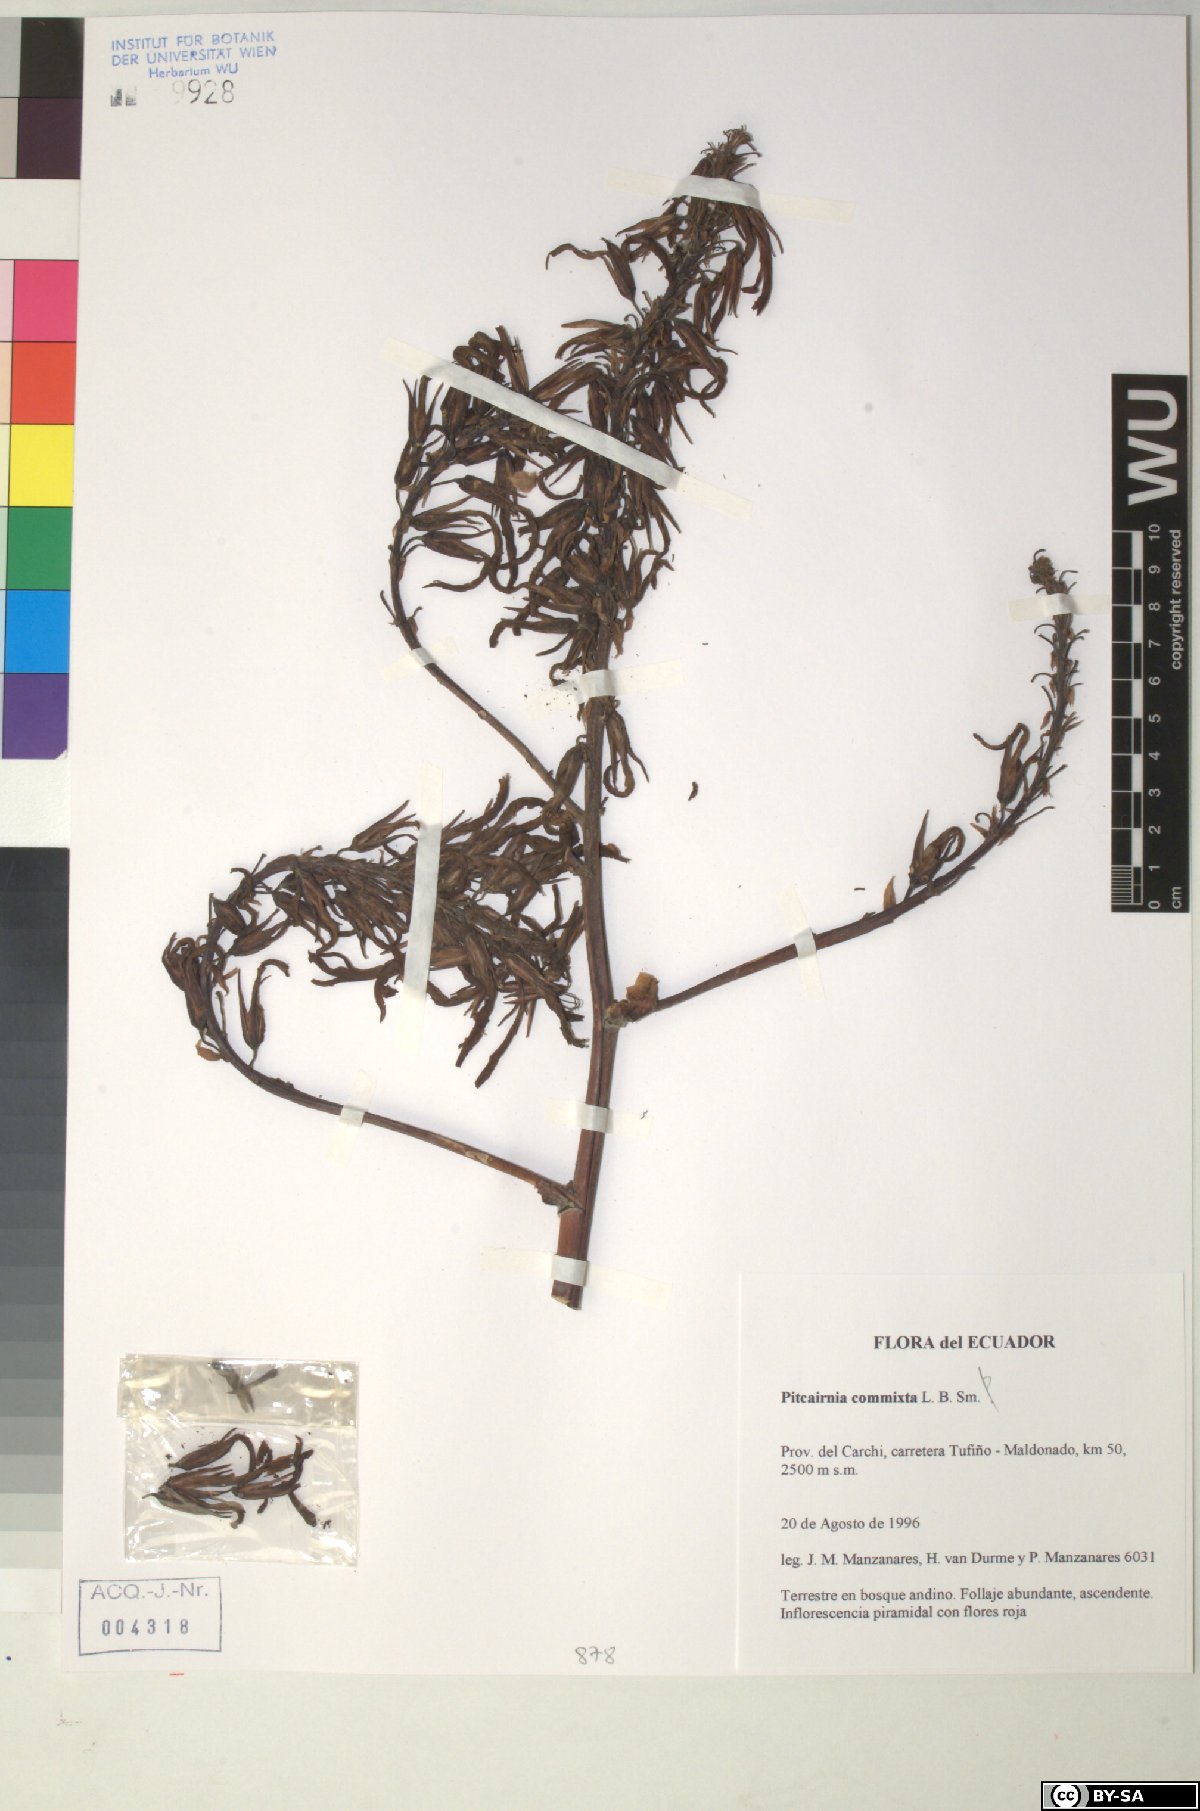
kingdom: Plantae
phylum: Tracheophyta
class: Liliopsida
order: Poales
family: Bromeliaceae
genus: Pitcairnia
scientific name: Pitcairnia commixta
